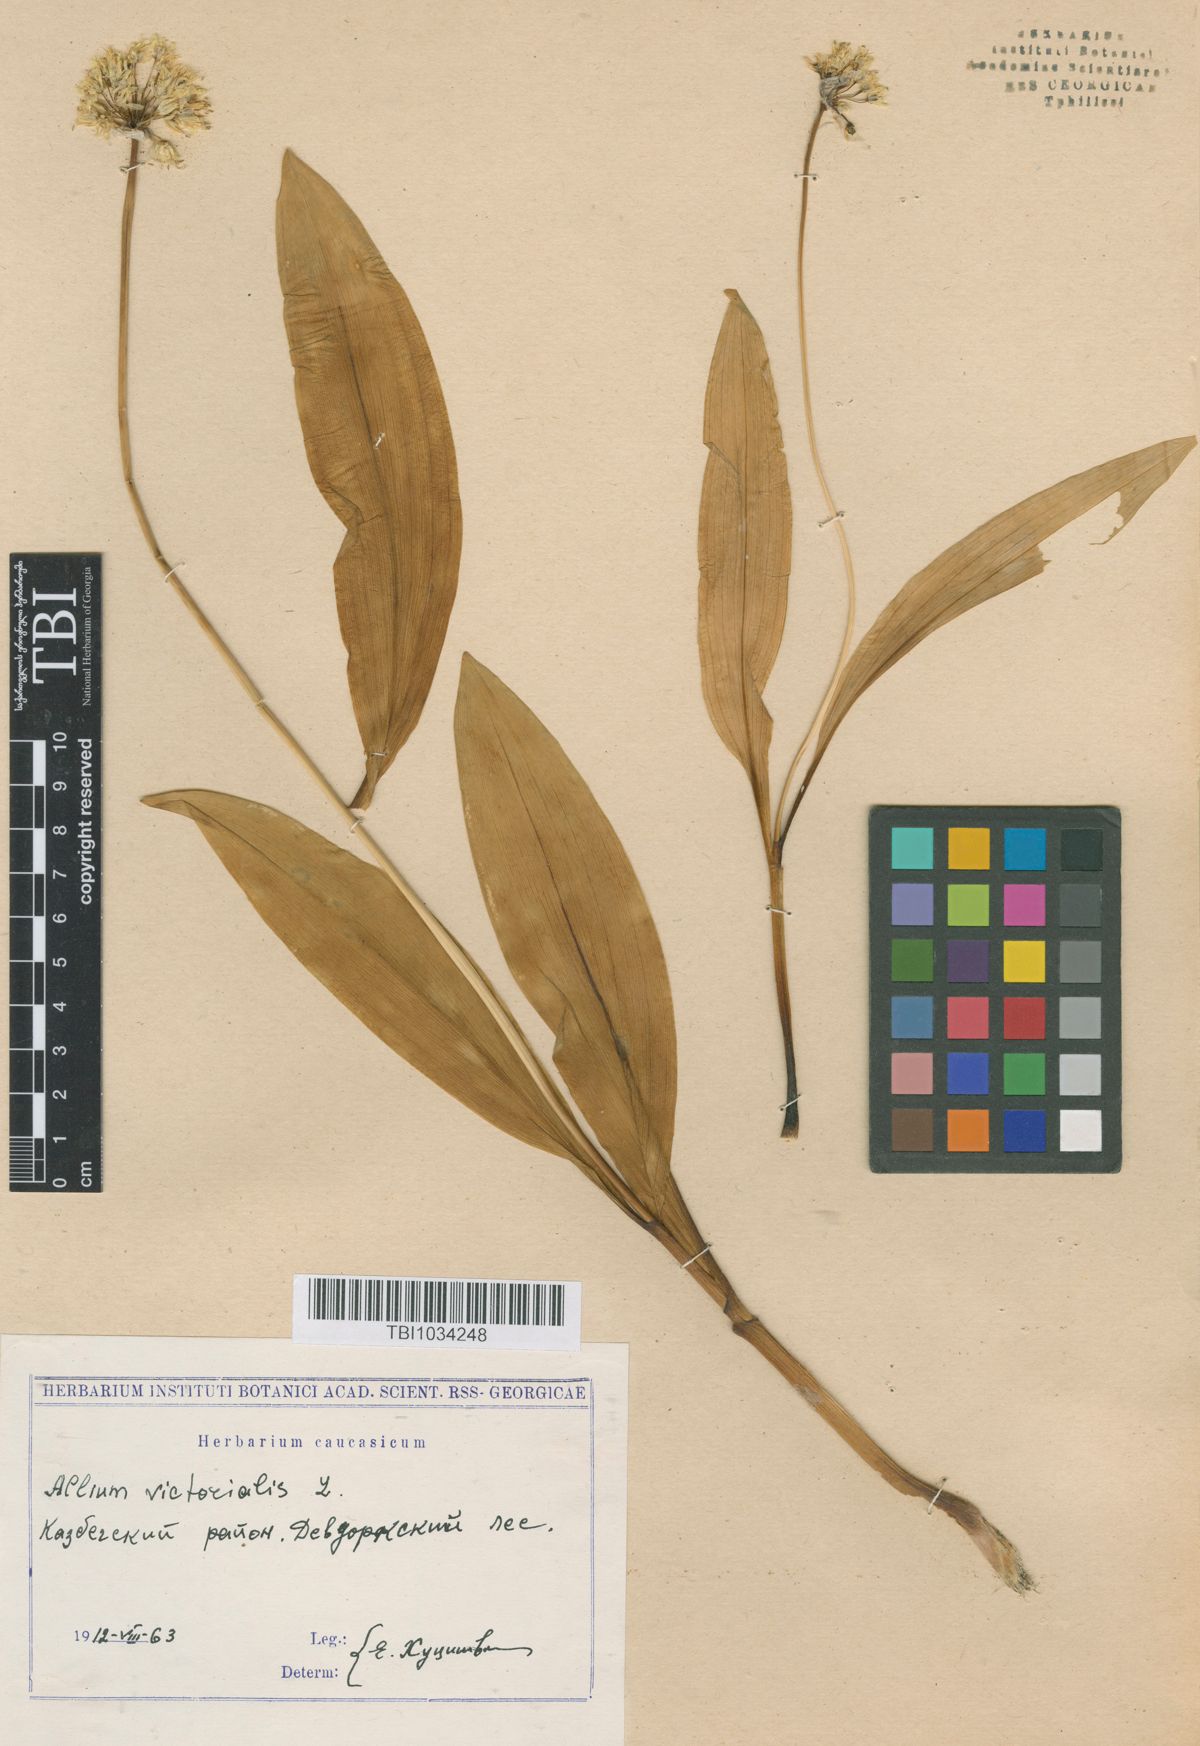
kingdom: Plantae
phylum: Tracheophyta
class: Liliopsida
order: Asparagales
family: Amaryllidaceae
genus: Allium
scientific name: Allium victorialis
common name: Alpine leek
